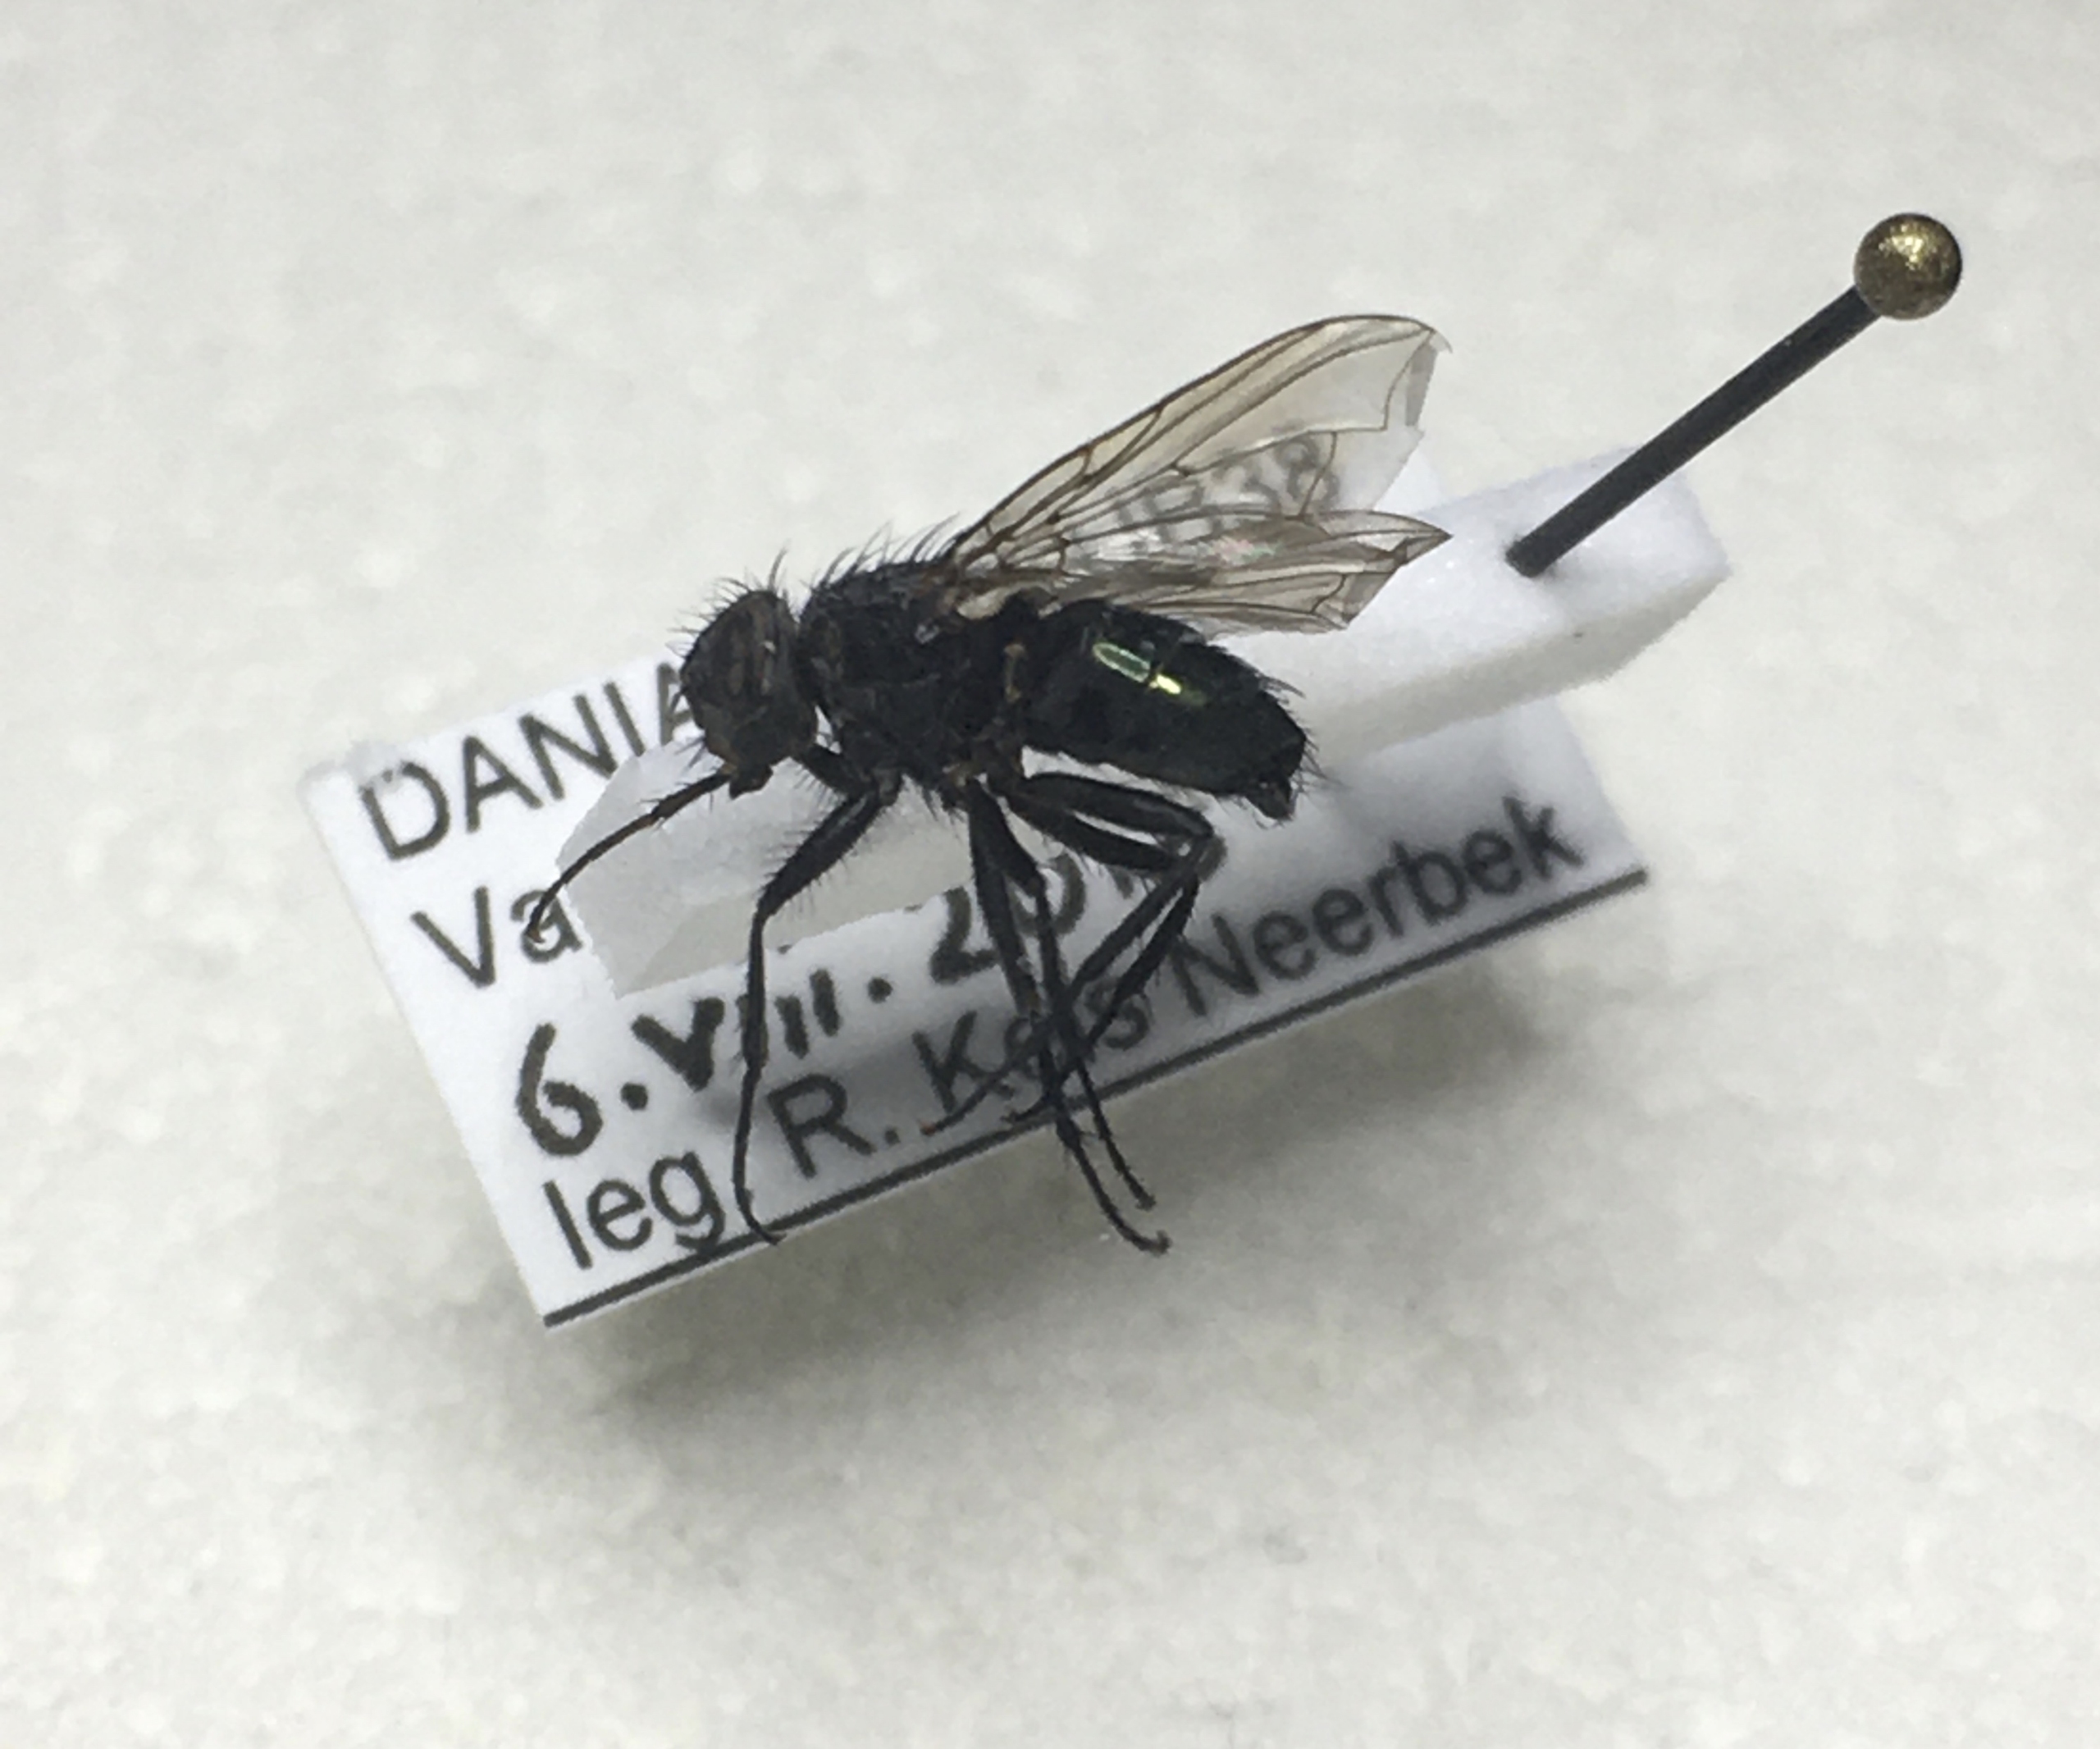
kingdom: Animalia
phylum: Arthropoda
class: Insecta
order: Diptera
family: Calliphoridae
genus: Bellardia
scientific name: Bellardia vulgaris
